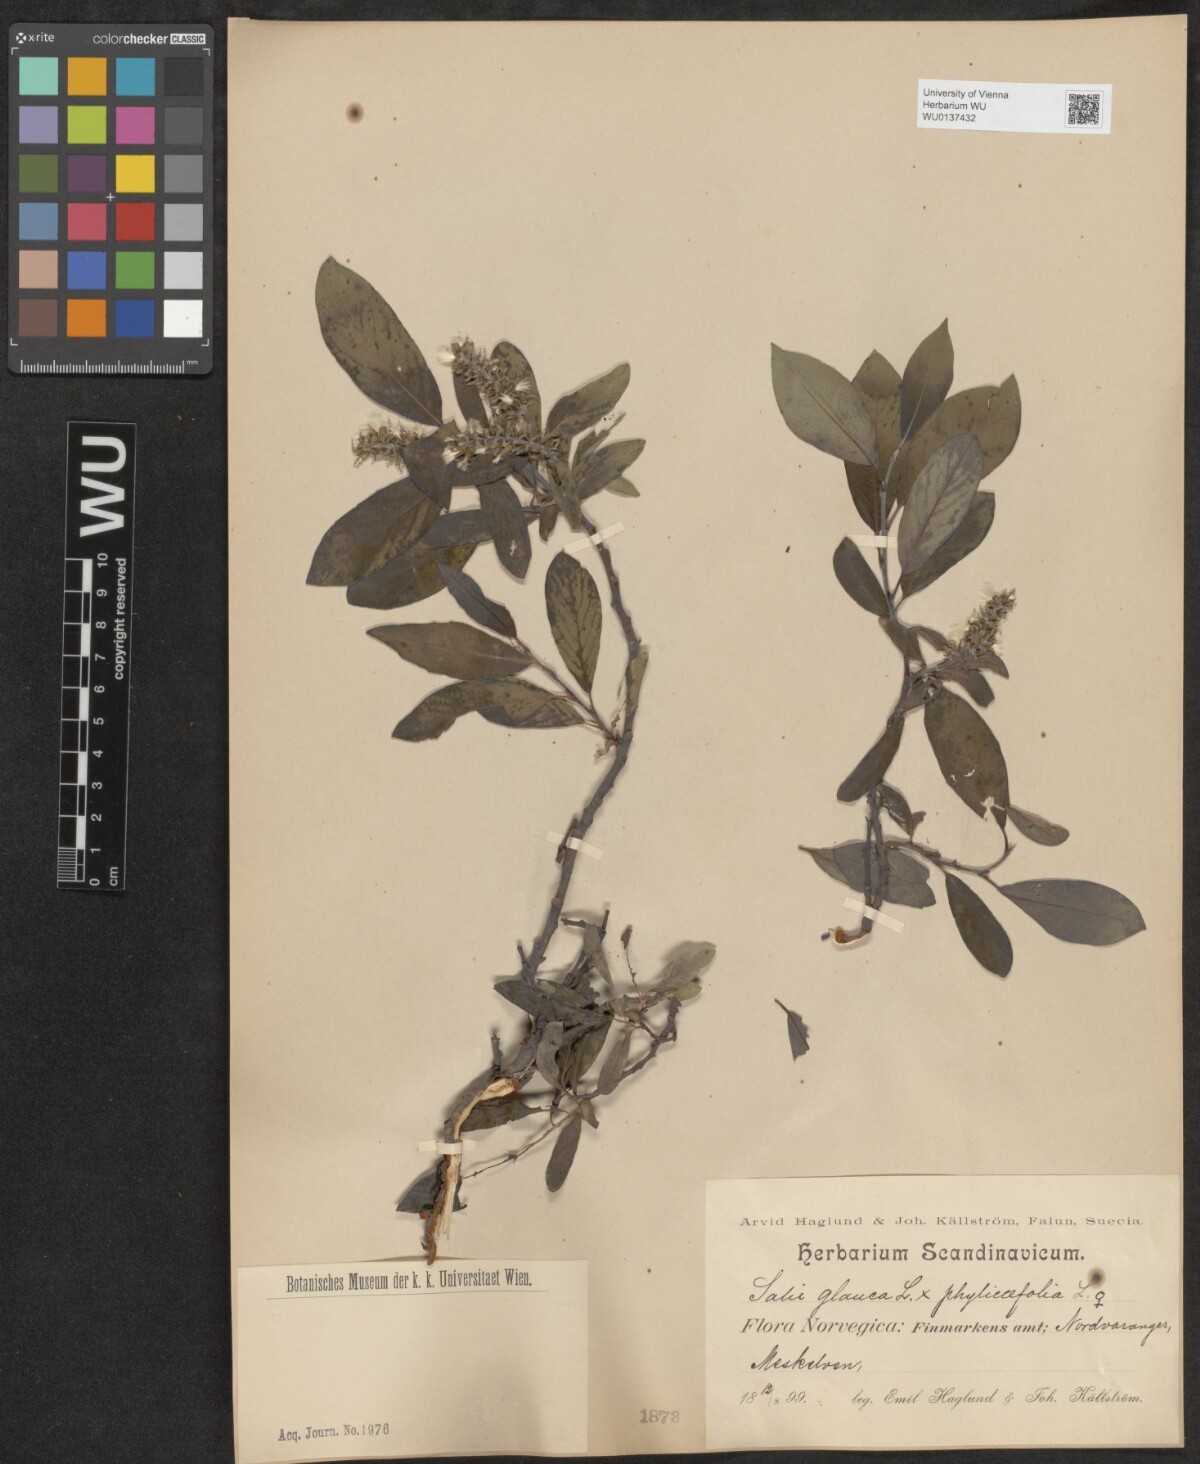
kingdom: Plantae
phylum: Tracheophyta
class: Magnoliopsida
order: Malpighiales
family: Salicaceae
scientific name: Salicaceae
